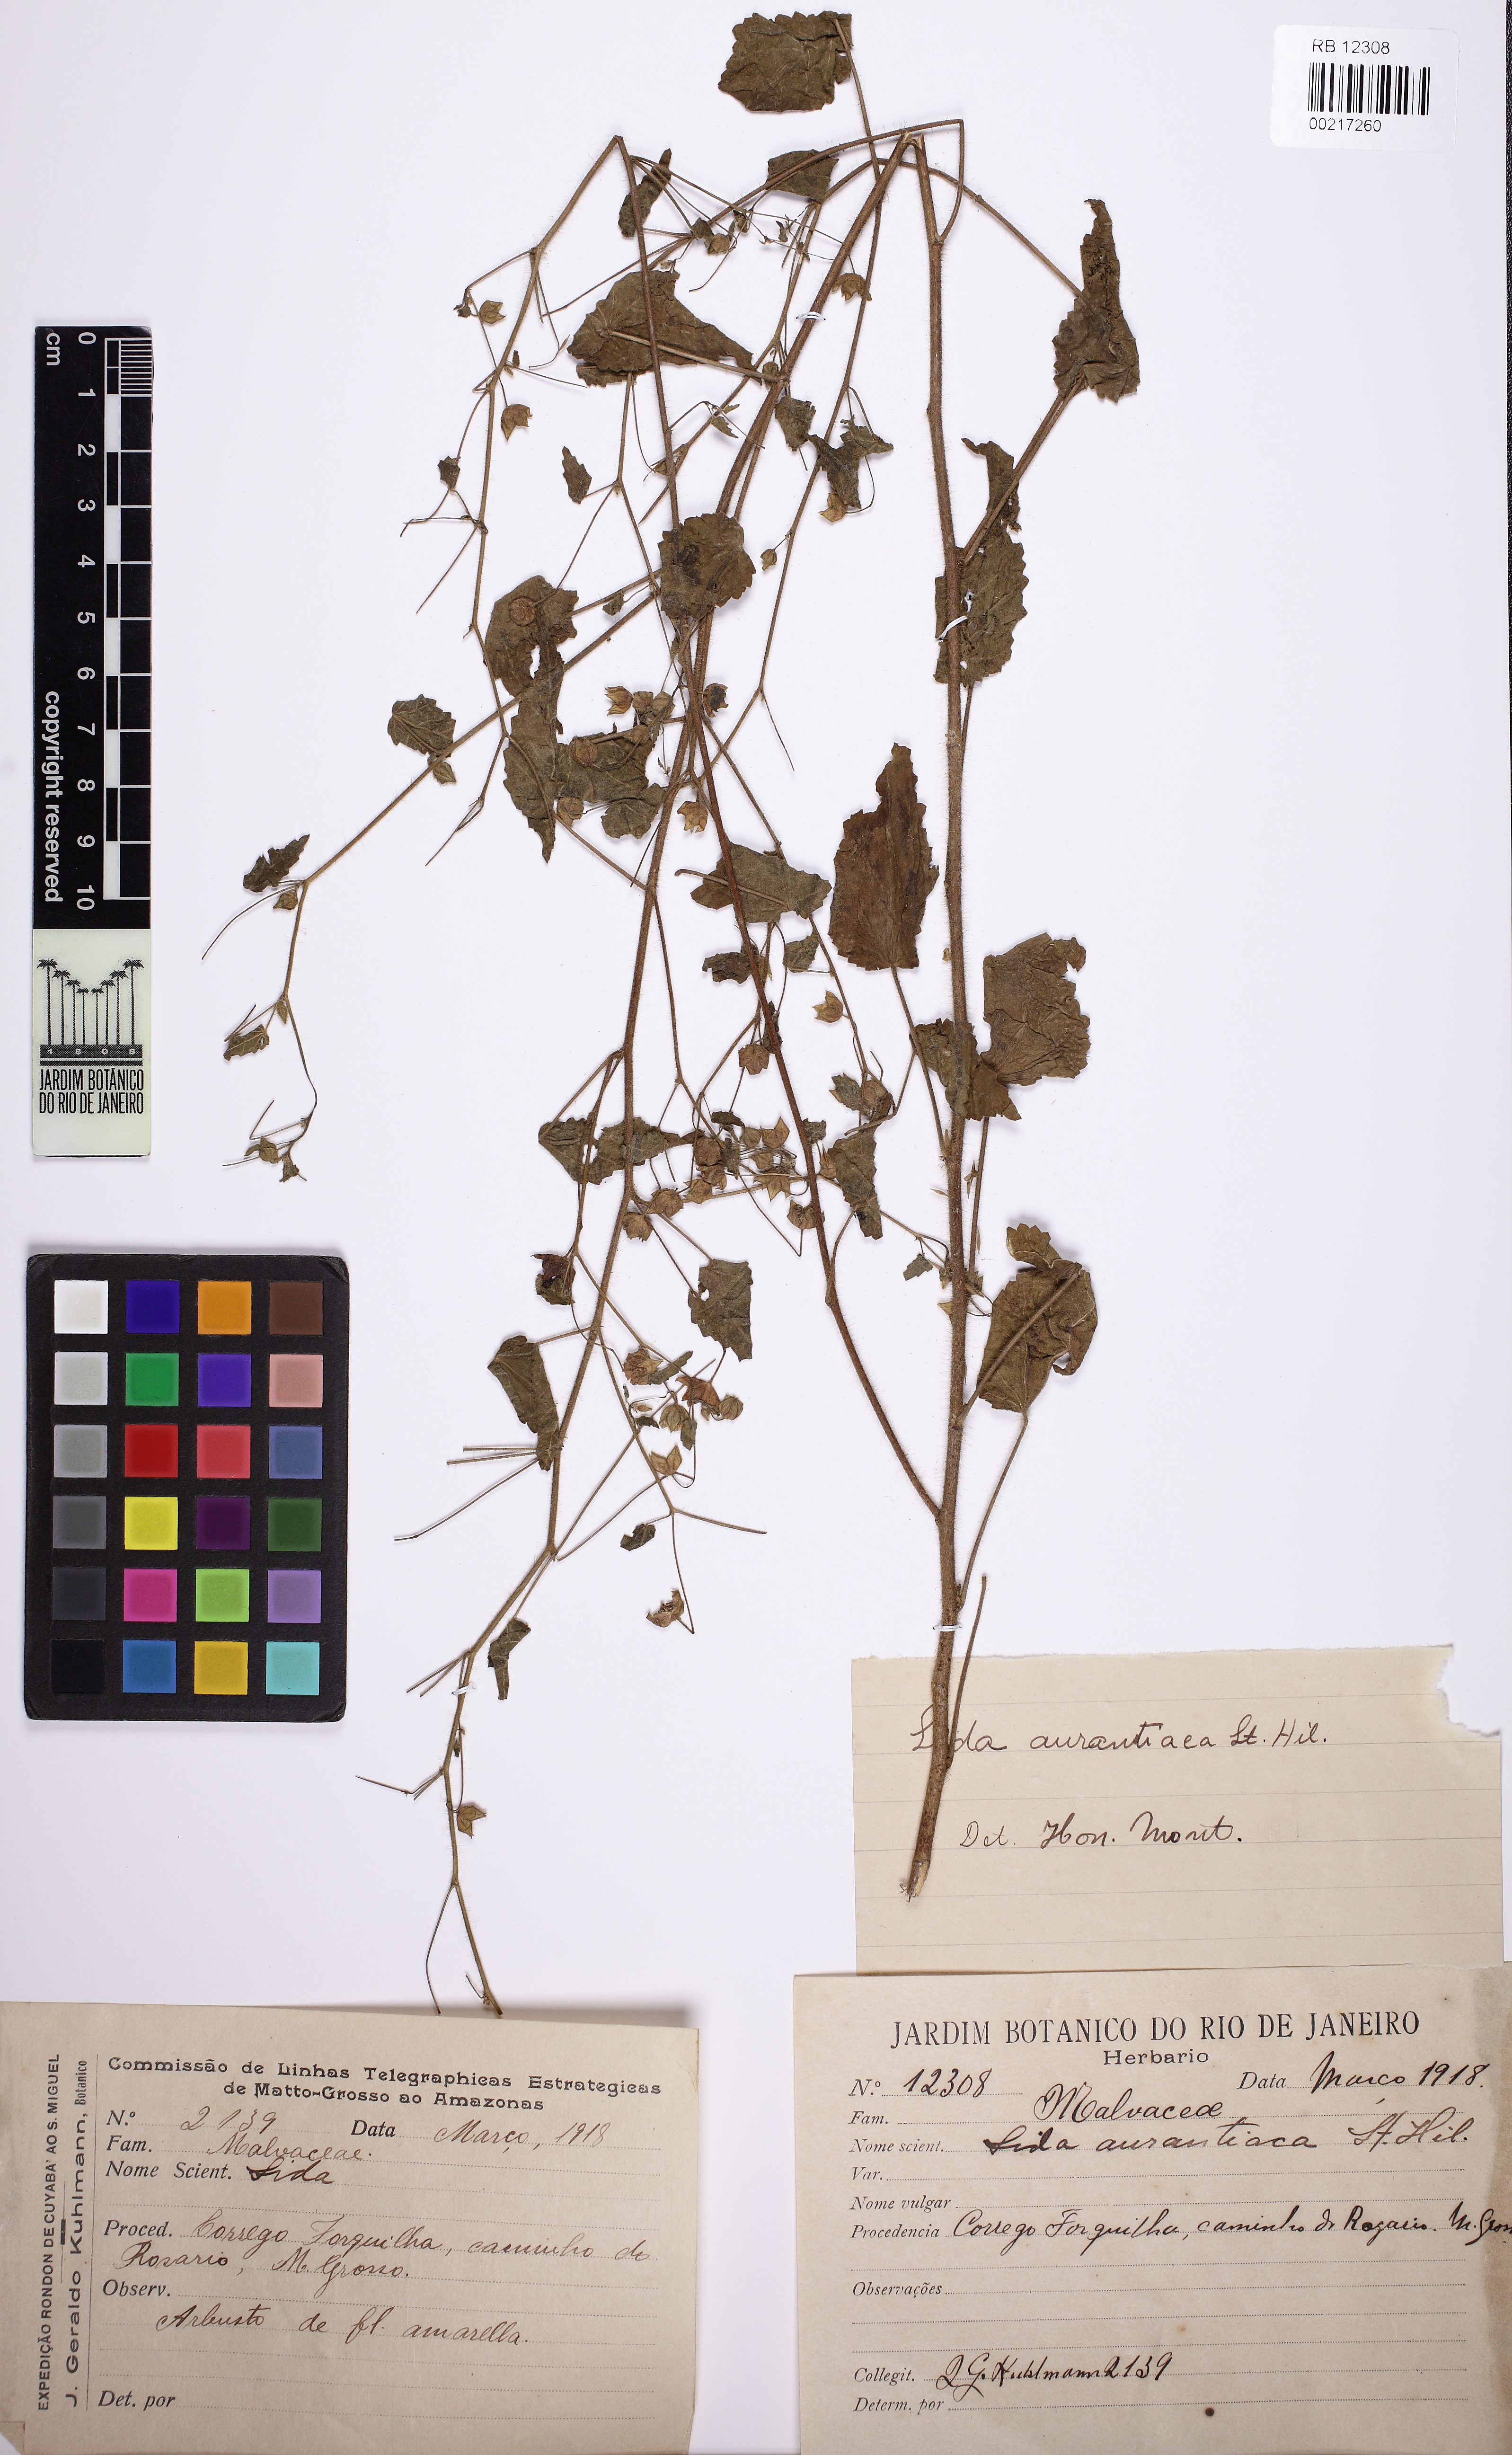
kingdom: Plantae
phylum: Tracheophyta
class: Magnoliopsida
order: Malvales
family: Malvaceae
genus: Sida
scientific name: Sida aurantiaca
